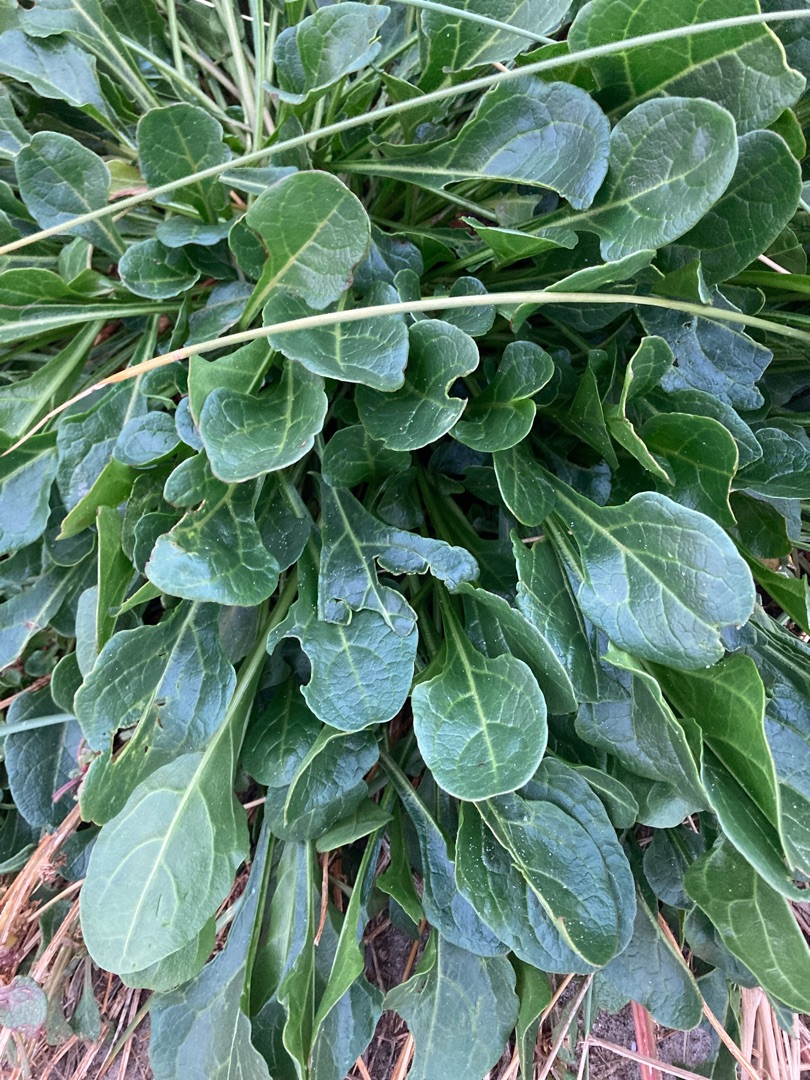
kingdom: Plantae
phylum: Tracheophyta
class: Magnoliopsida
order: Caryophyllales
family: Amaranthaceae
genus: Beta
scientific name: Beta maritima
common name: Strand-bede
